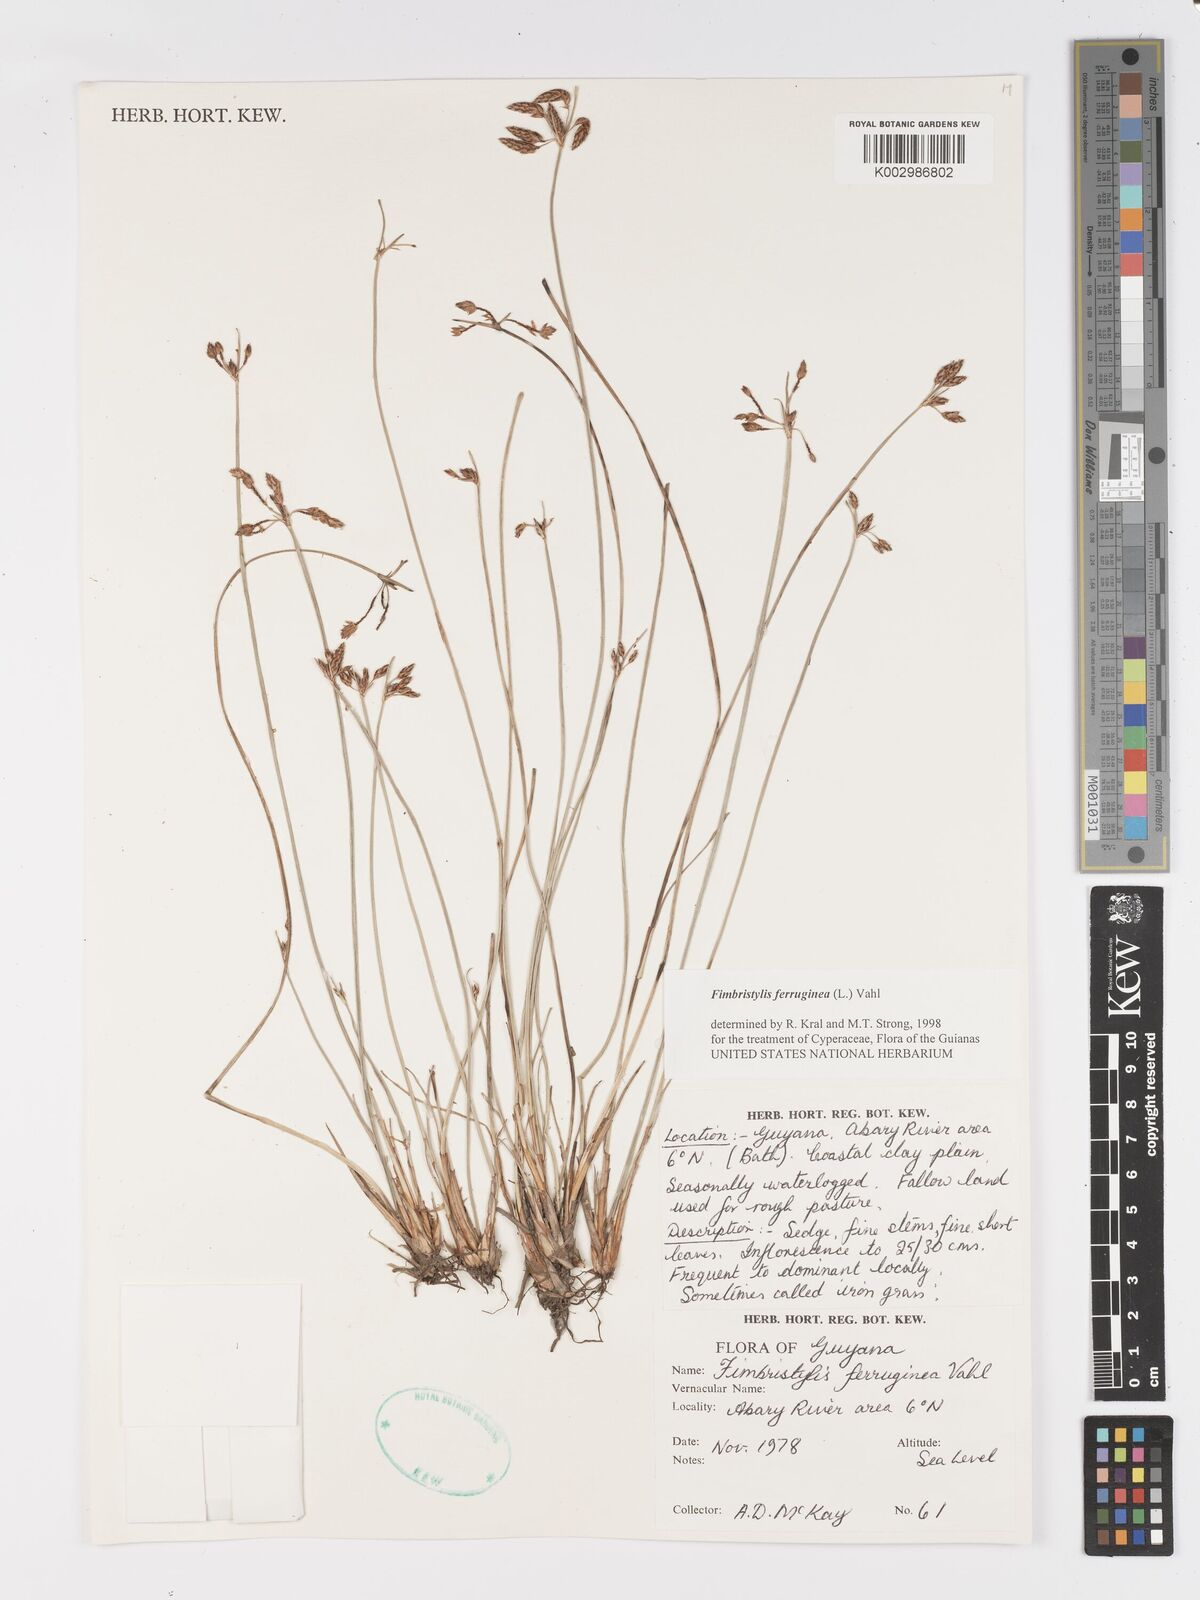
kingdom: Plantae
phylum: Tracheophyta
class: Liliopsida
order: Poales
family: Cyperaceae
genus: Fimbristylis
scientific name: Fimbristylis ferruginea
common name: West indian fimbry
